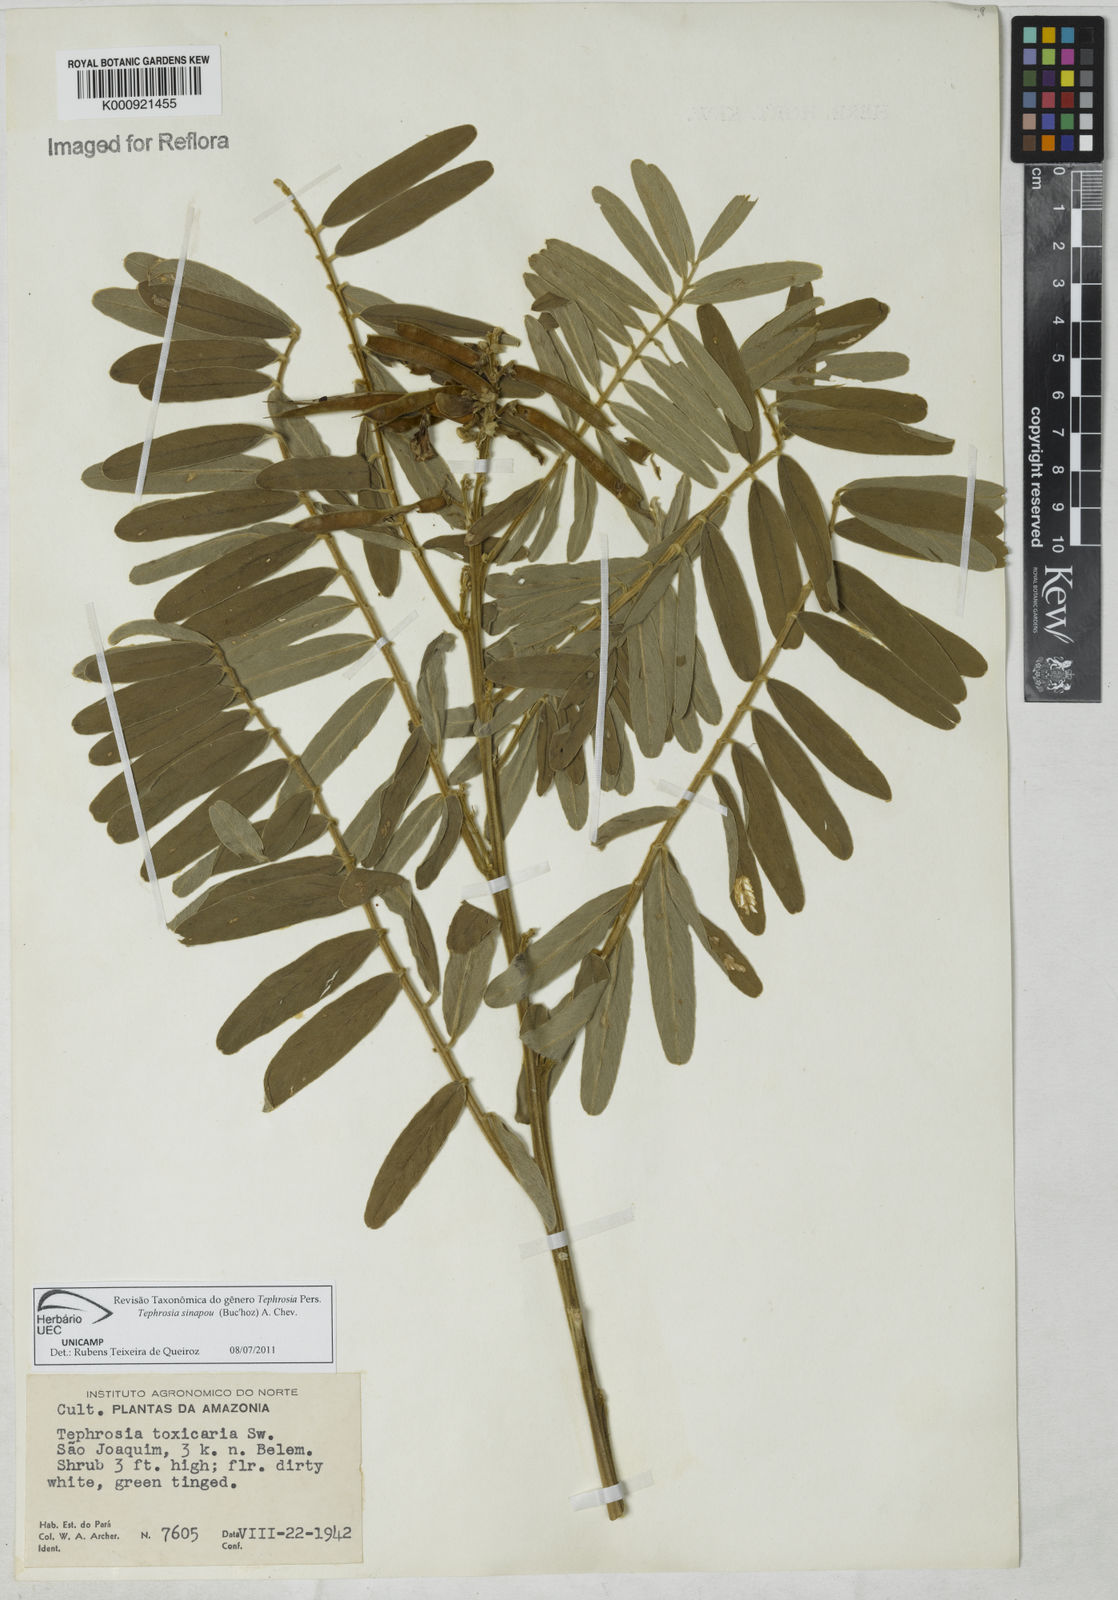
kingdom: Plantae
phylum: Tracheophyta
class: Magnoliopsida
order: Fabales
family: Fabaceae
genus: Tephrosia
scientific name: Tephrosia
